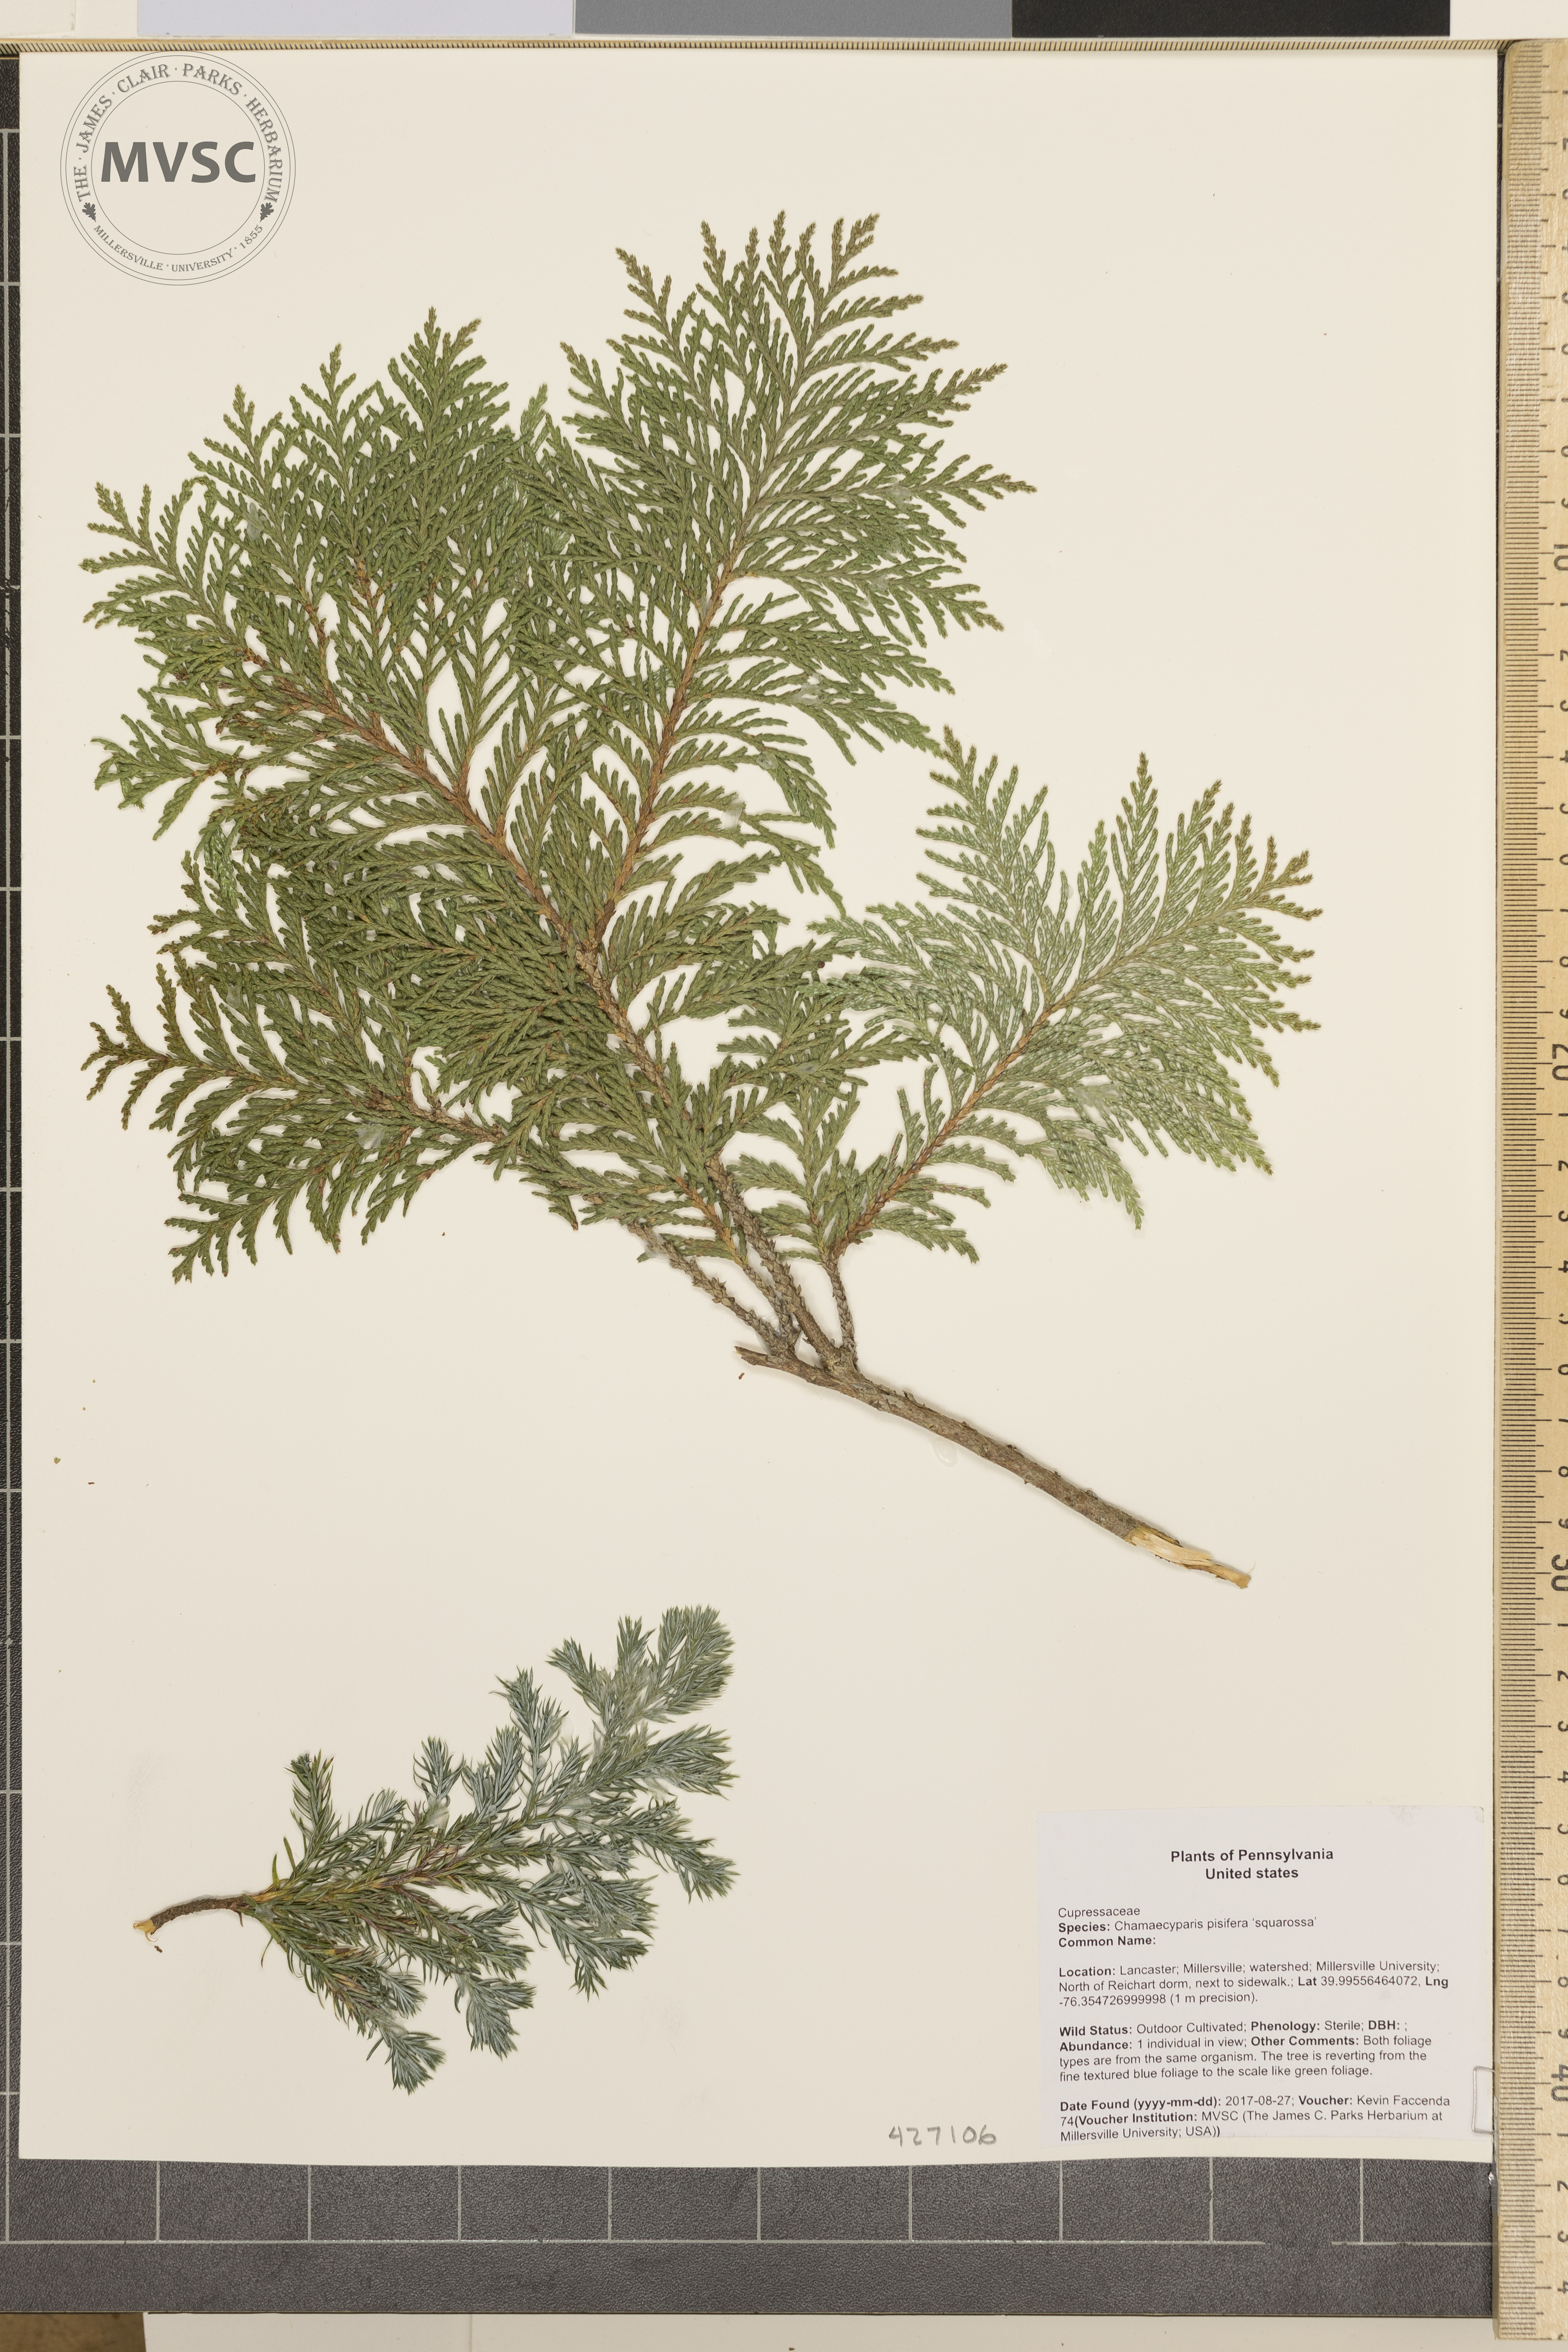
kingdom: Plantae
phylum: Tracheophyta
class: Pinopsida
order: Pinales
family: Cupressaceae
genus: Chamaecyparis
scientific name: Chamaecyparis pisifera
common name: Sawara cypress
